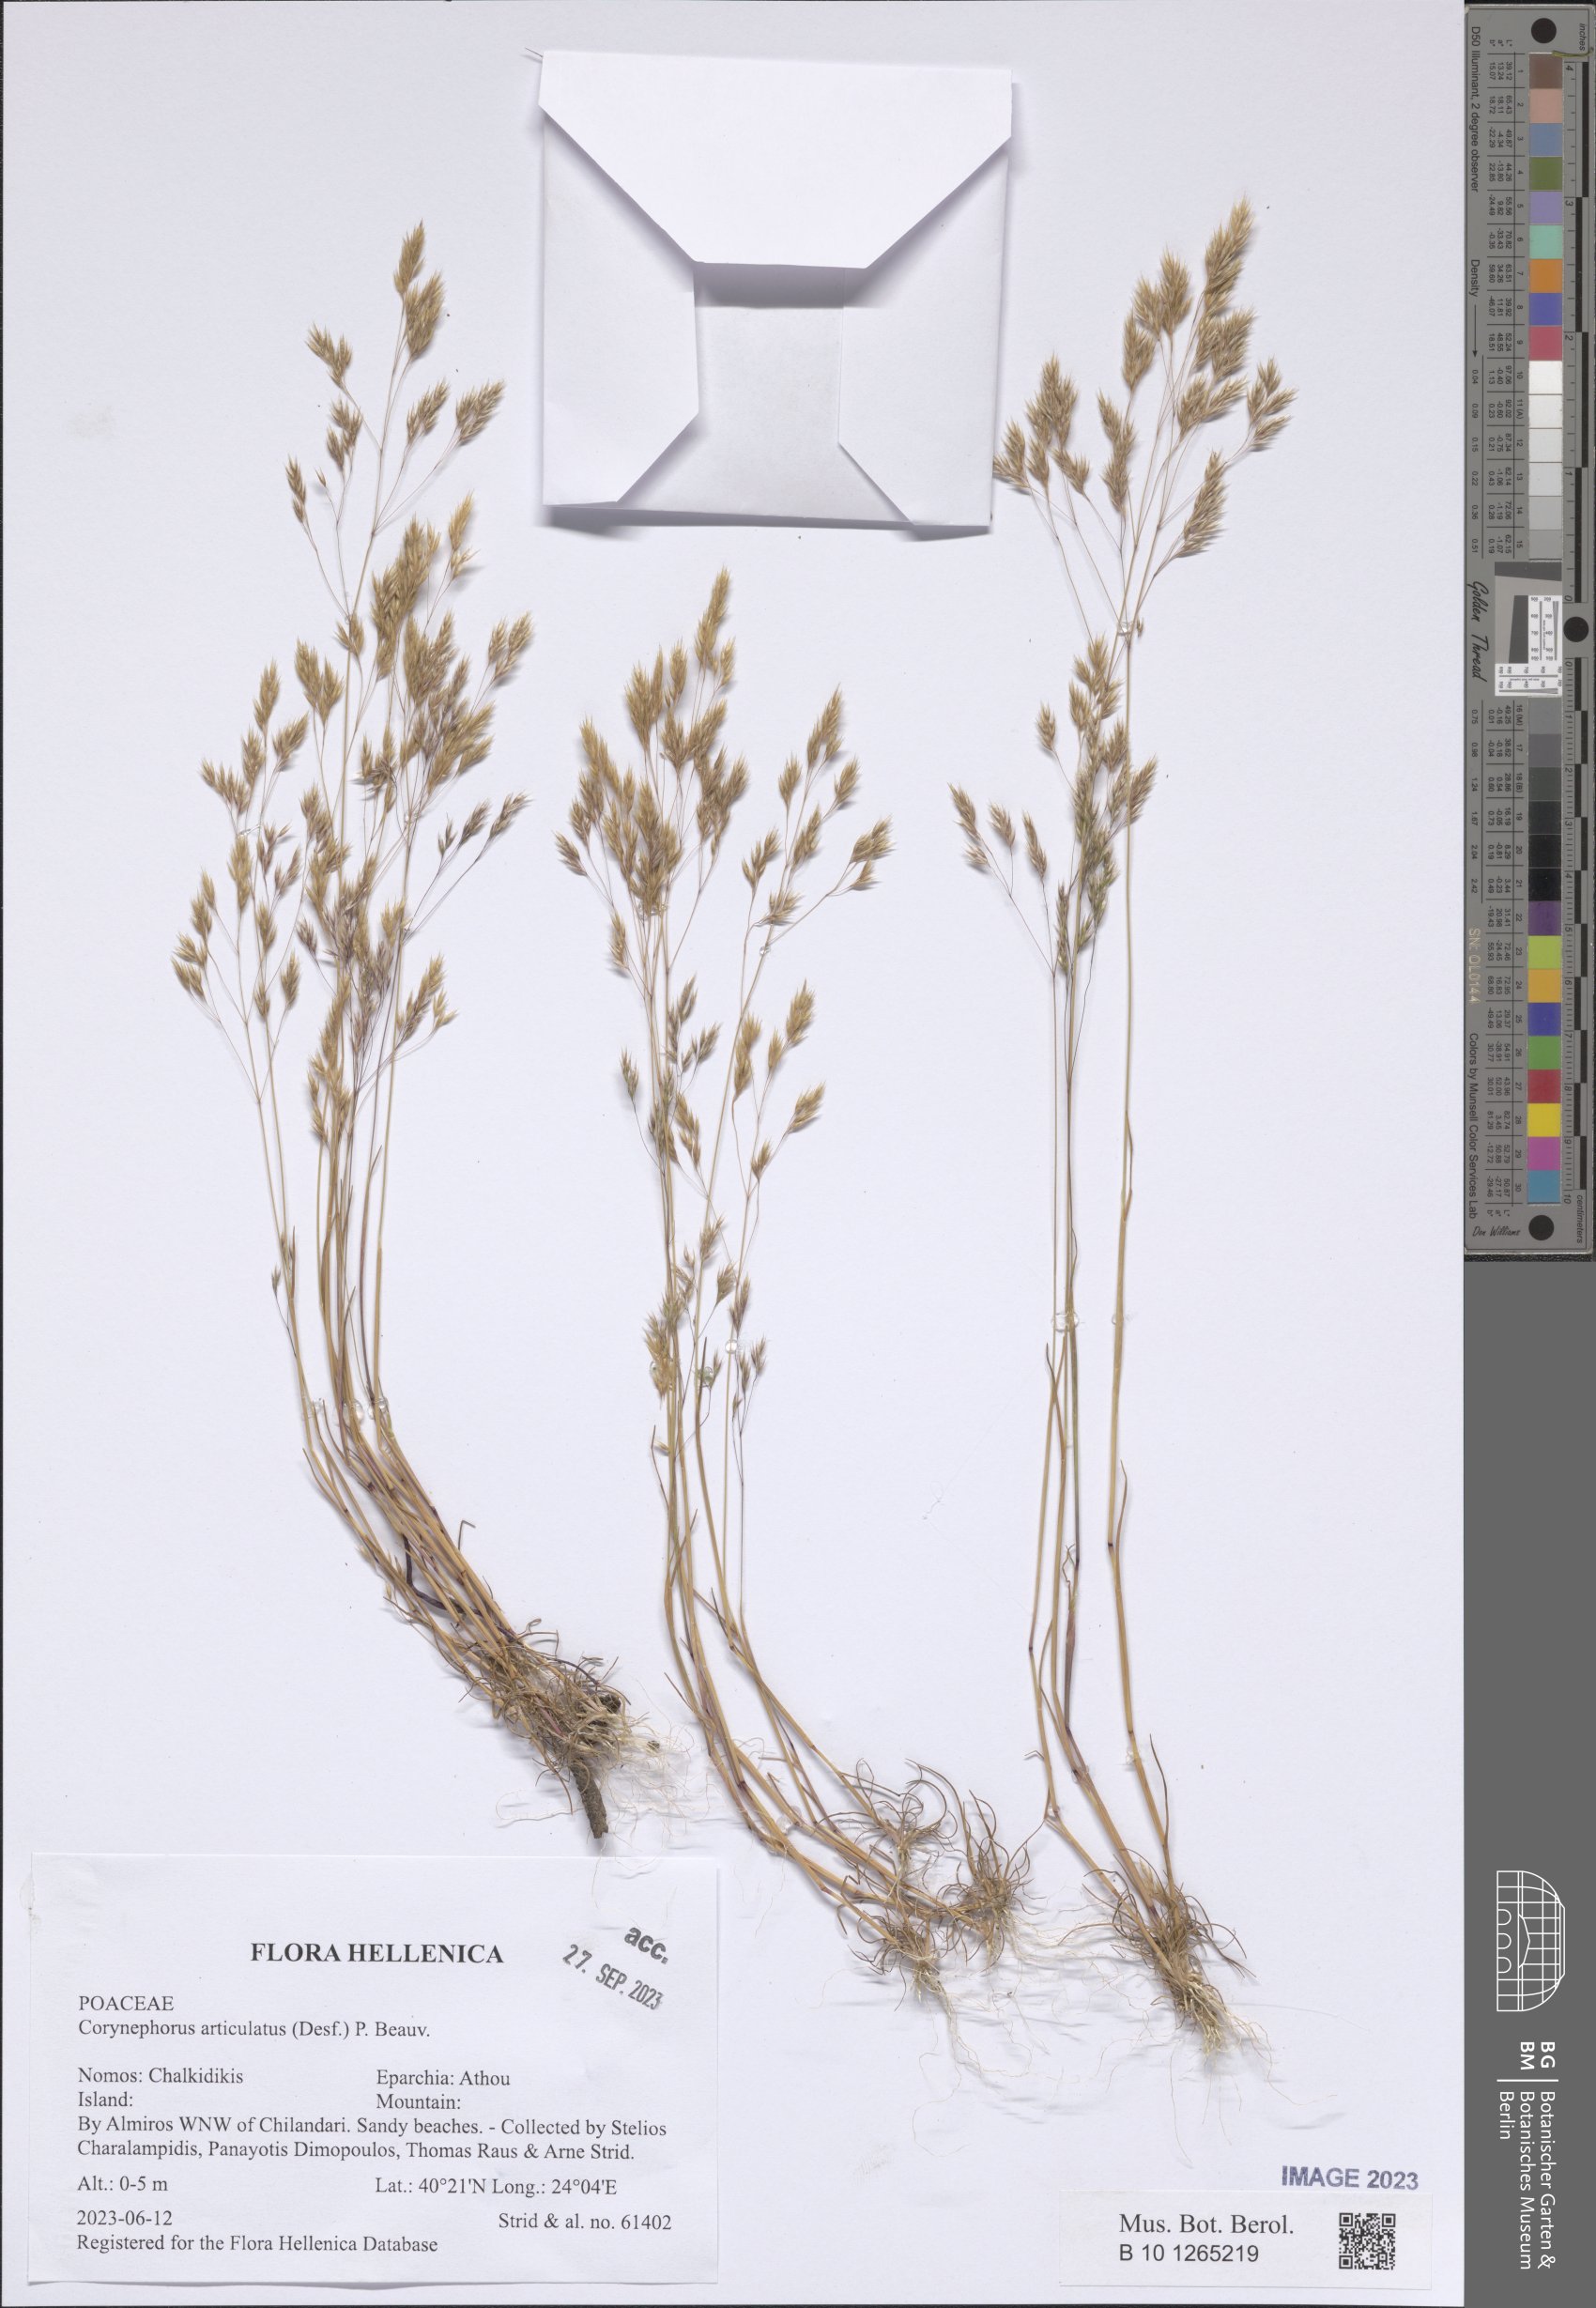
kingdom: Plantae
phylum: Tracheophyta
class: Liliopsida
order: Poales
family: Poaceae
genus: Corynephorus
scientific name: Corynephorus articulatus
